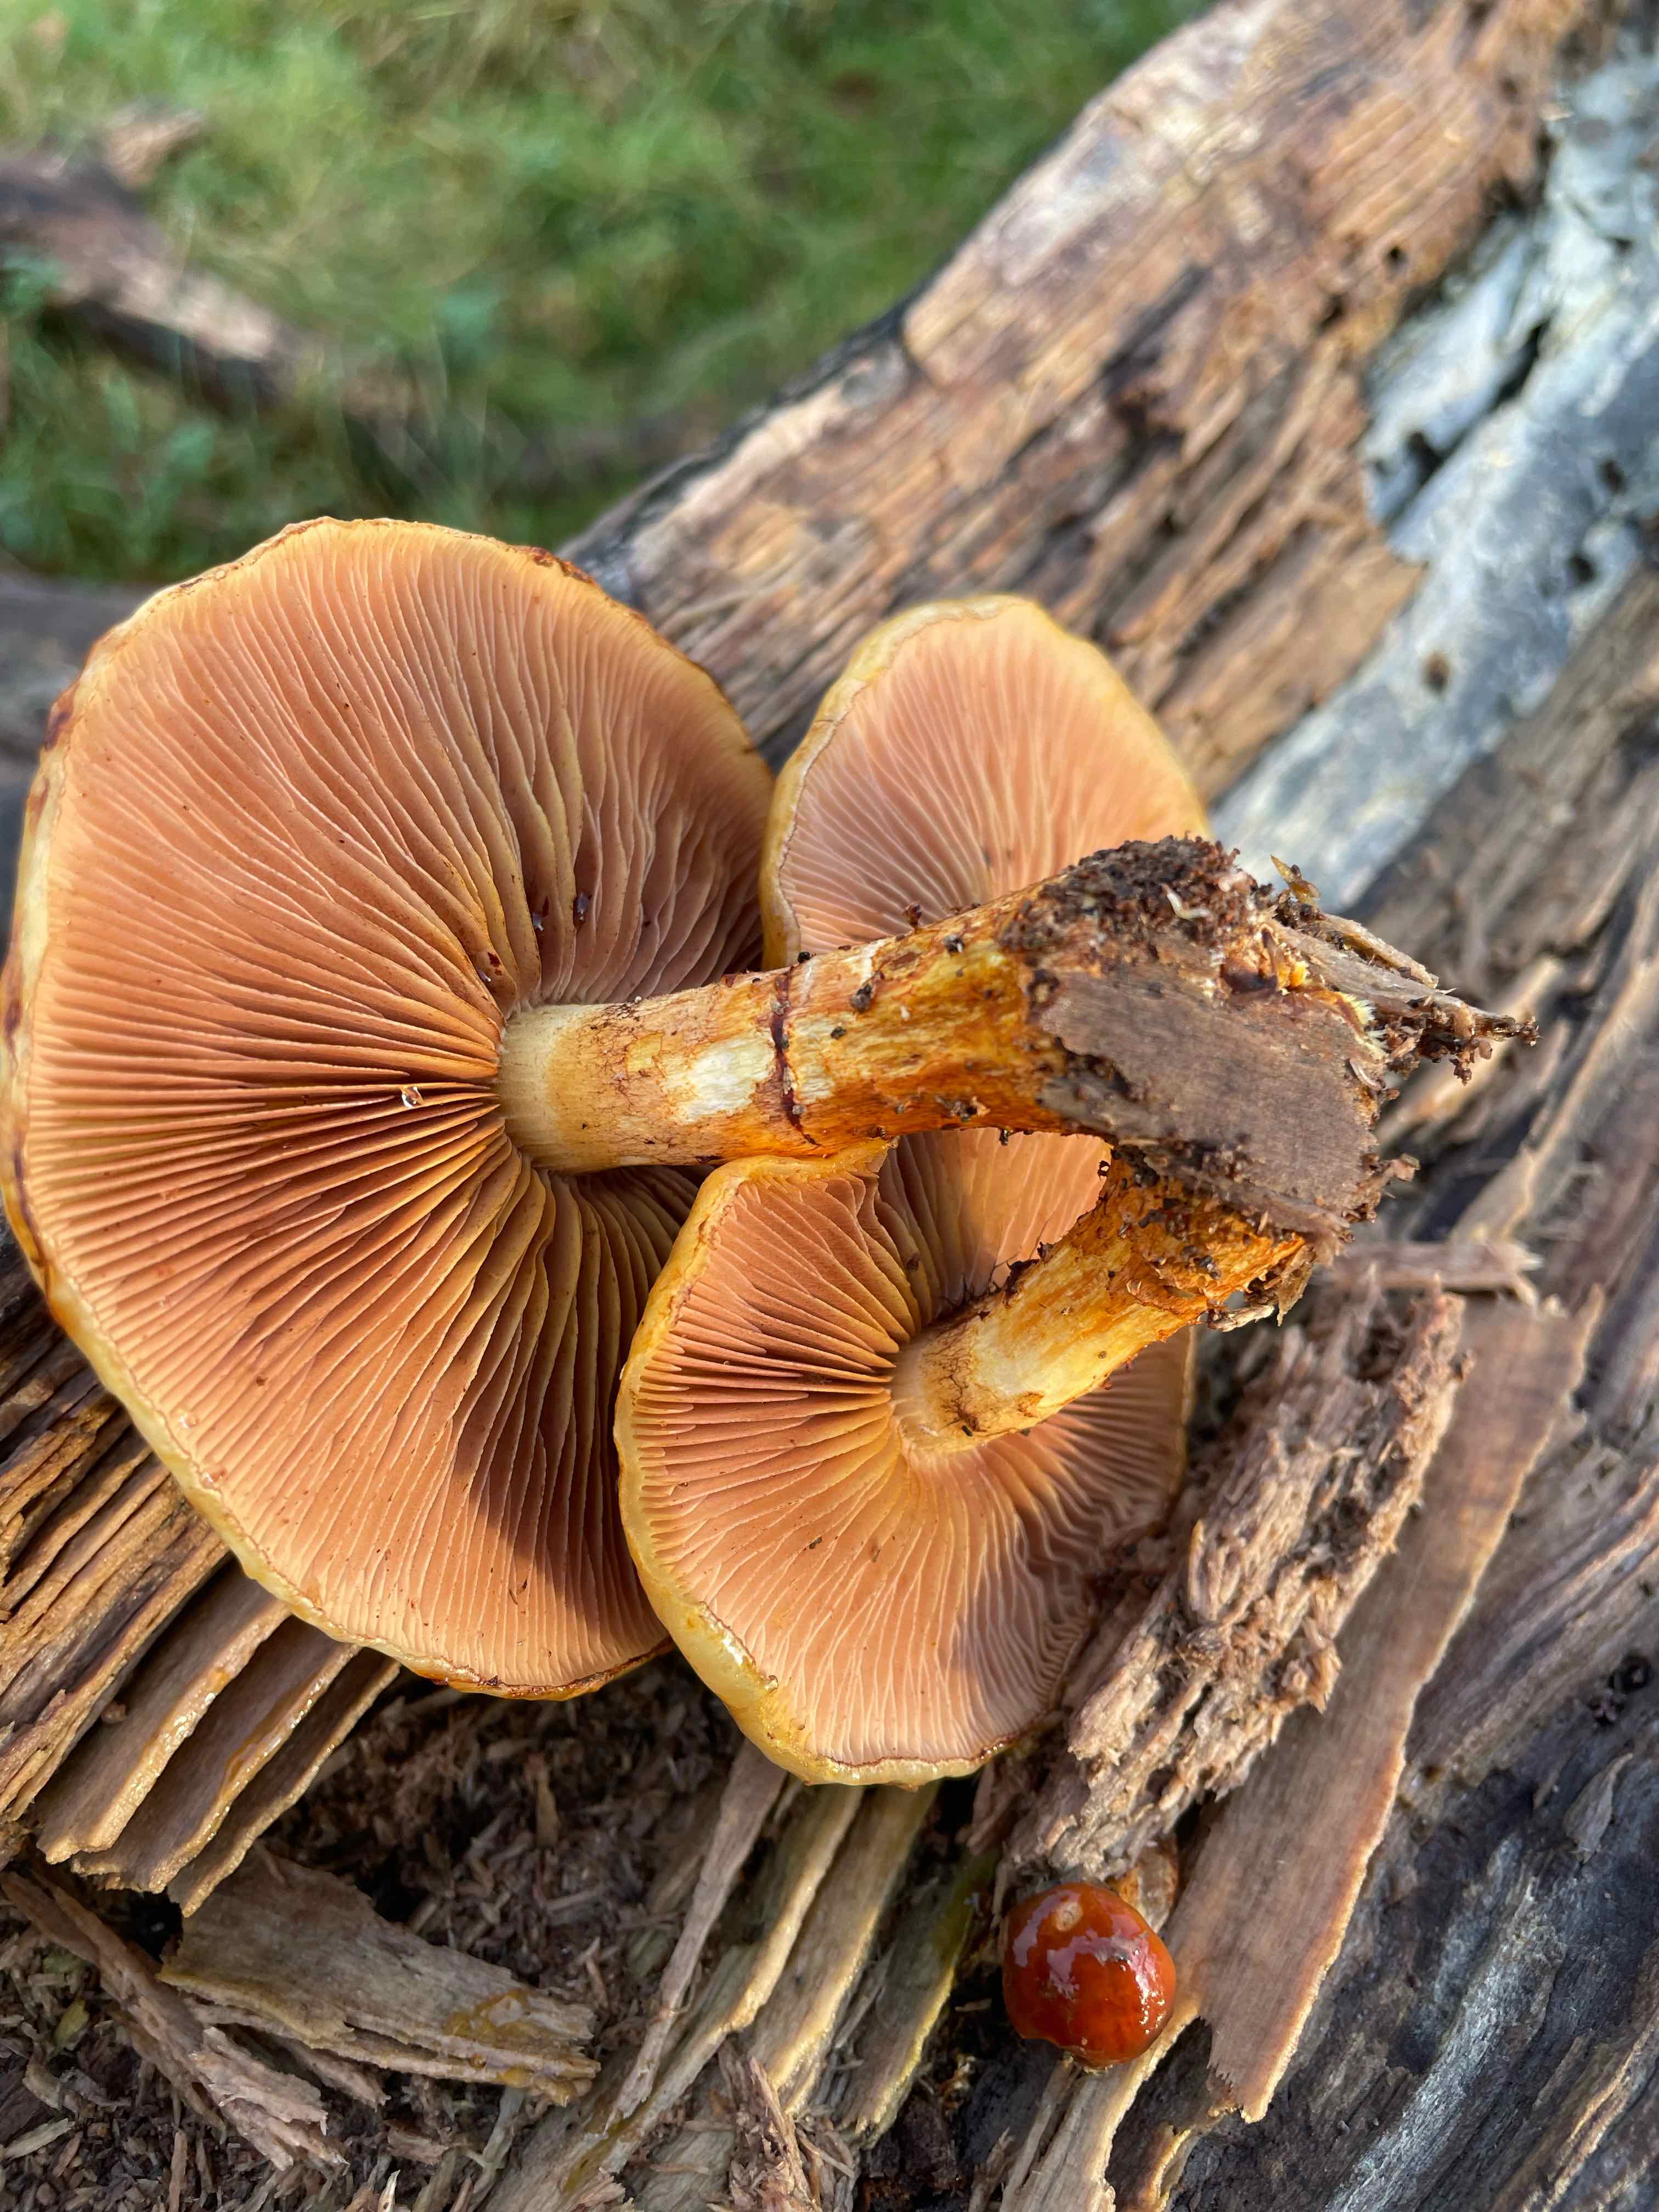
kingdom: Fungi
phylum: Basidiomycota
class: Agaricomycetes
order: Agaricales
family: Strophariaceae
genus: Pholiota
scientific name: Pholiota
